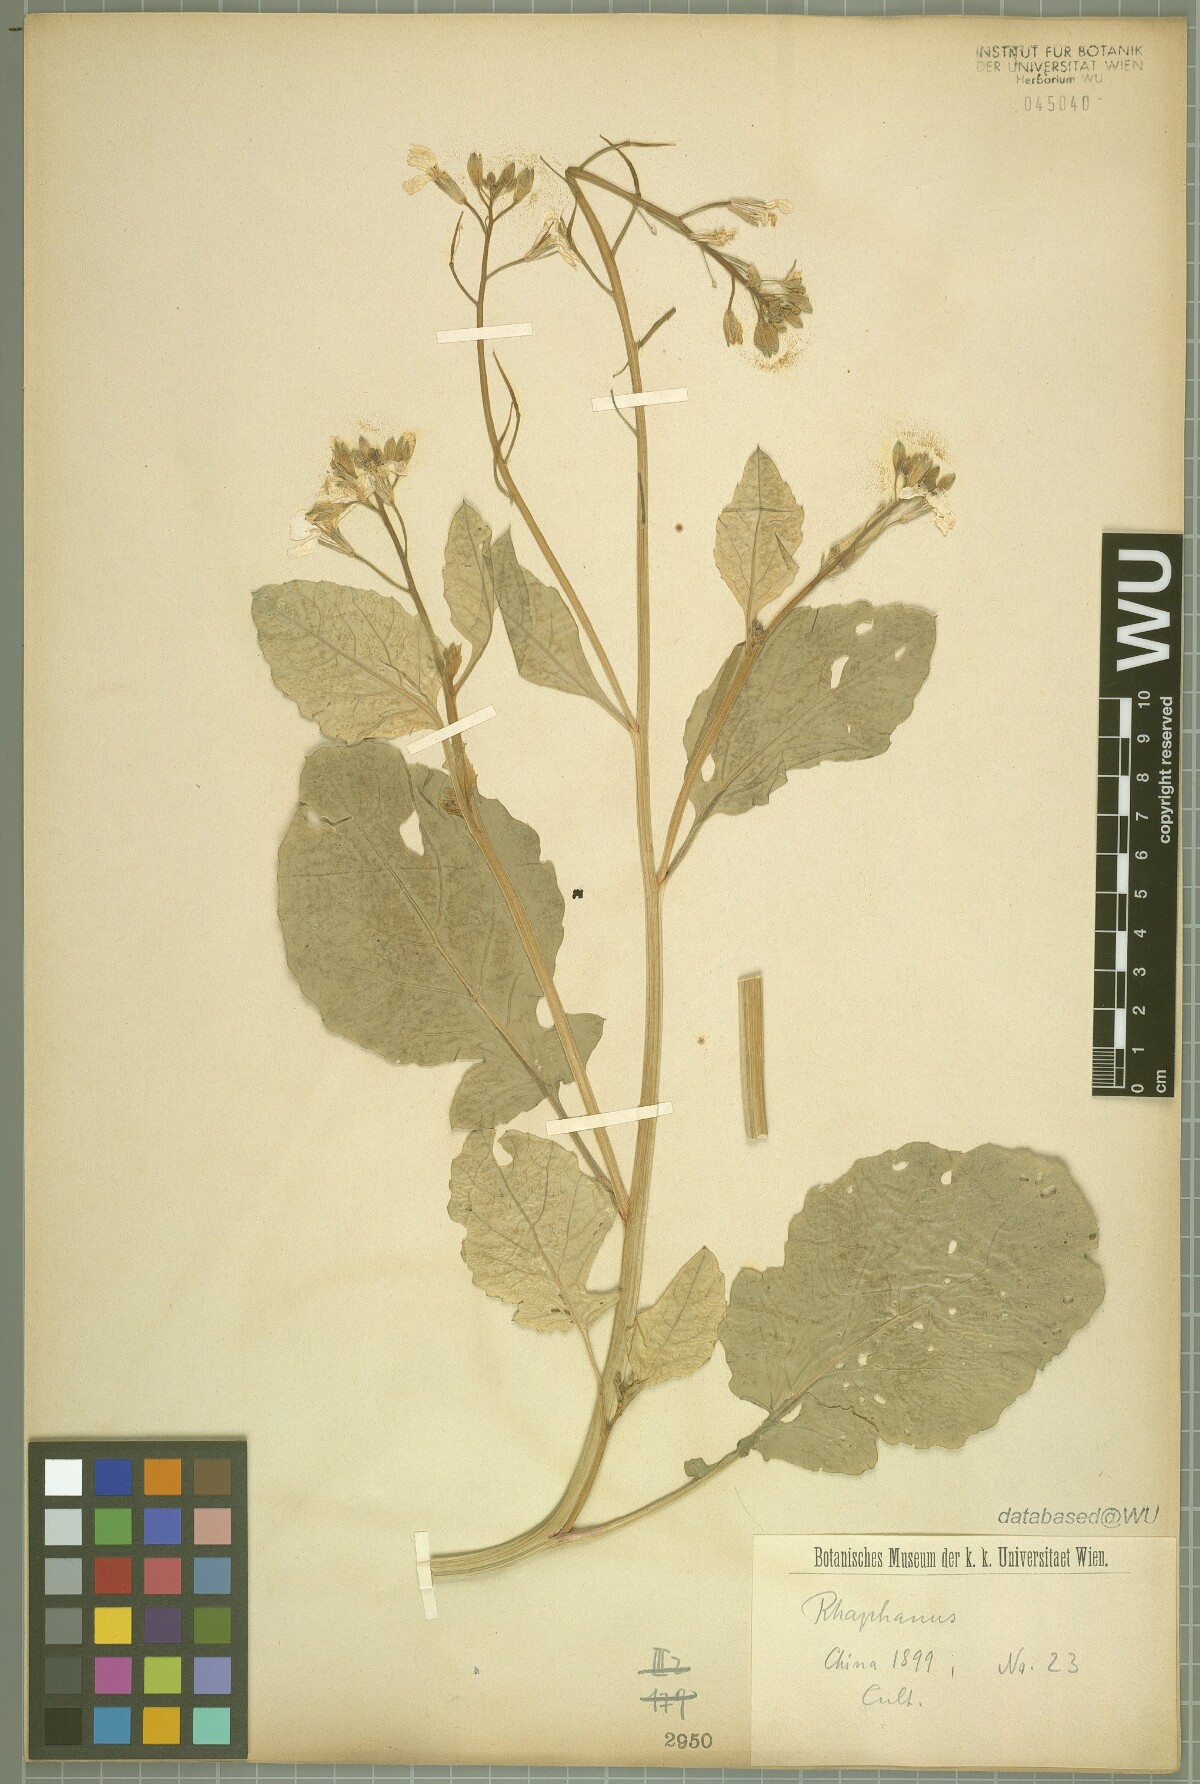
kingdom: Plantae
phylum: Tracheophyta
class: Magnoliopsida
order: Brassicales
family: Brassicaceae
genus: Raphanus
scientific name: Raphanus
